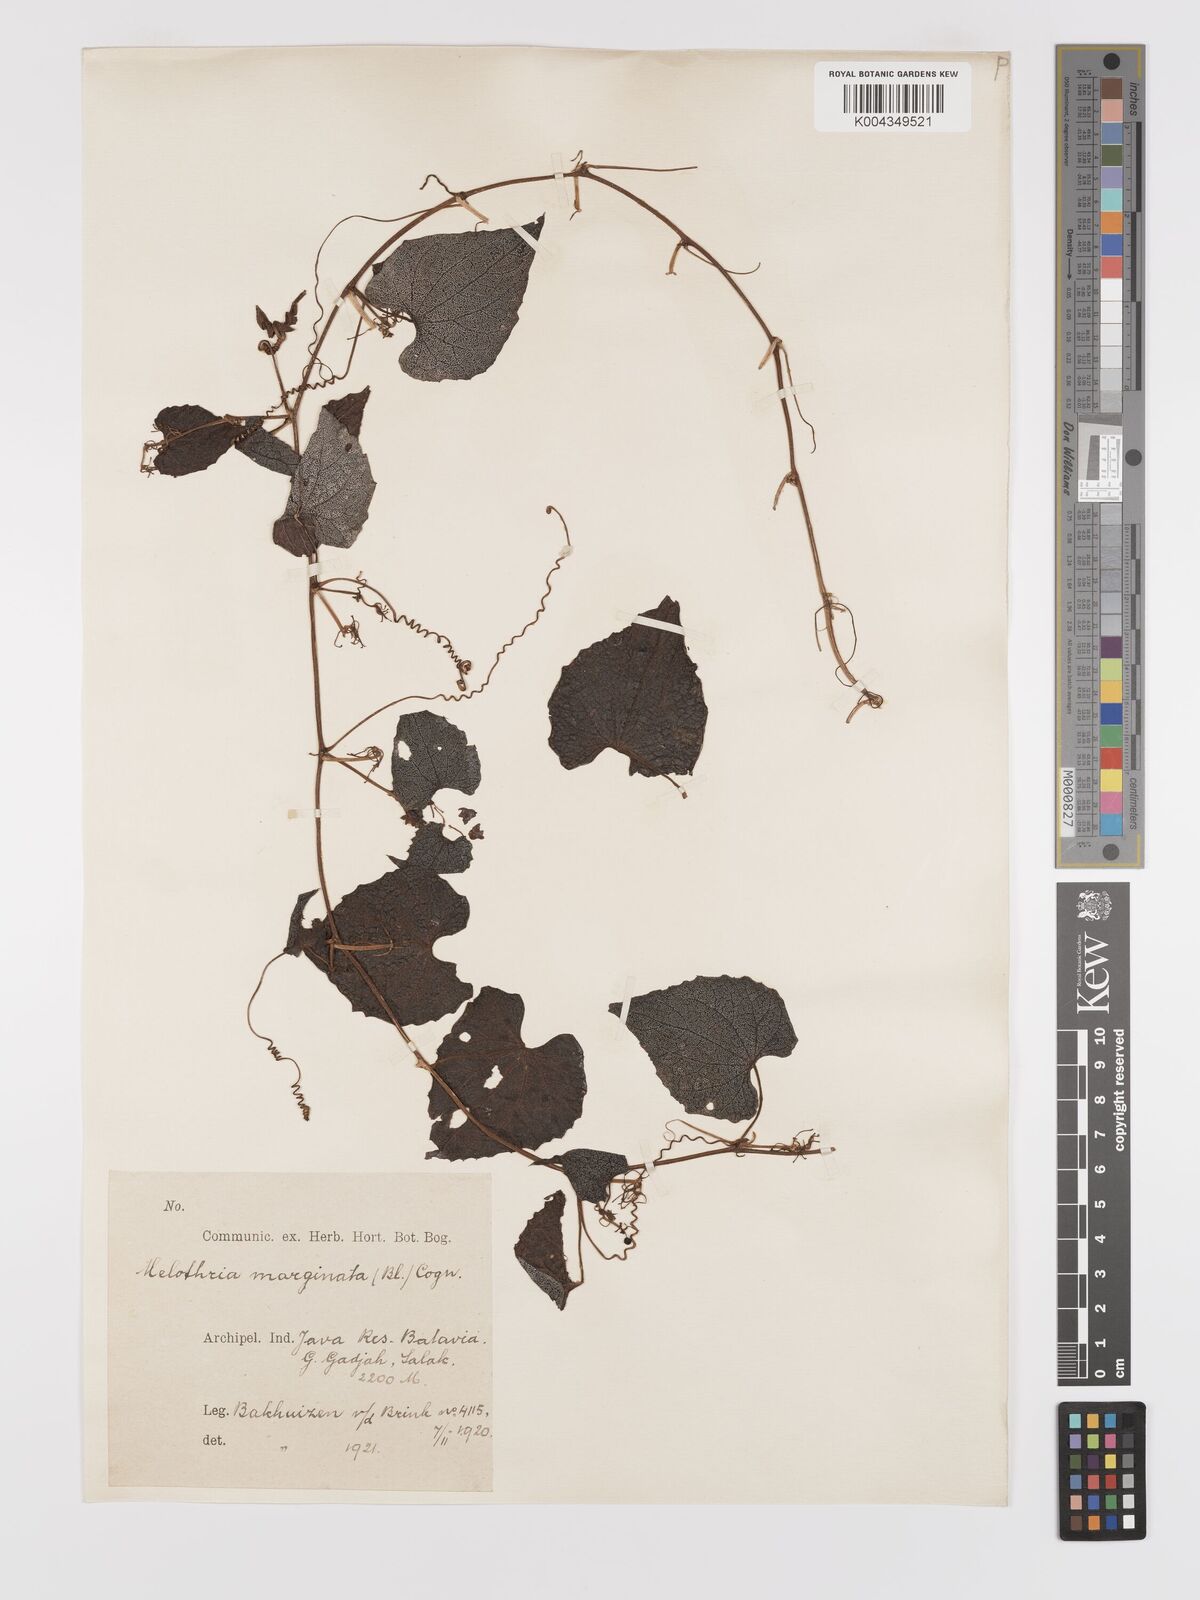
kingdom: Plantae
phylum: Tracheophyta
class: Magnoliopsida
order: Cucurbitales
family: Cucurbitaceae
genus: Zehneria
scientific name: Zehneria scabra
